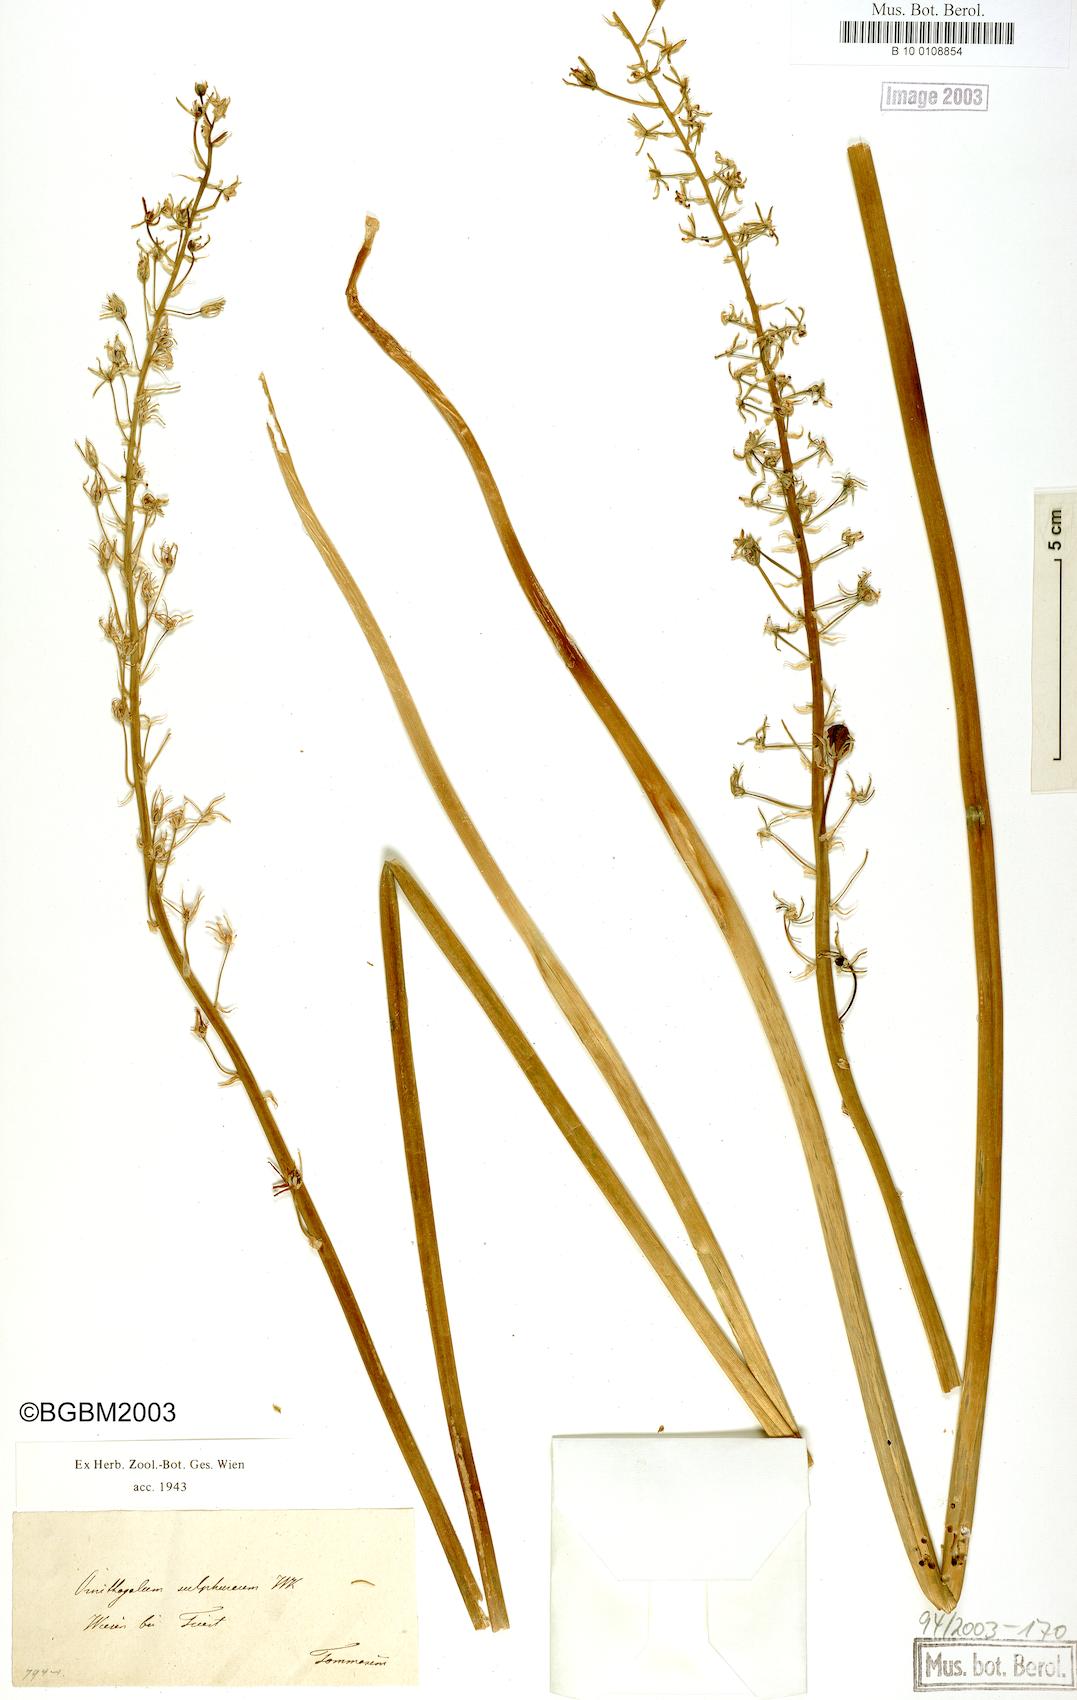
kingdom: Plantae
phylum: Tracheophyta
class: Liliopsida
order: Asparagales
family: Asparagaceae
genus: Ornithogalum
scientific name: Ornithogalum pyrenaicum
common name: Spiked star-of-bethlehem
